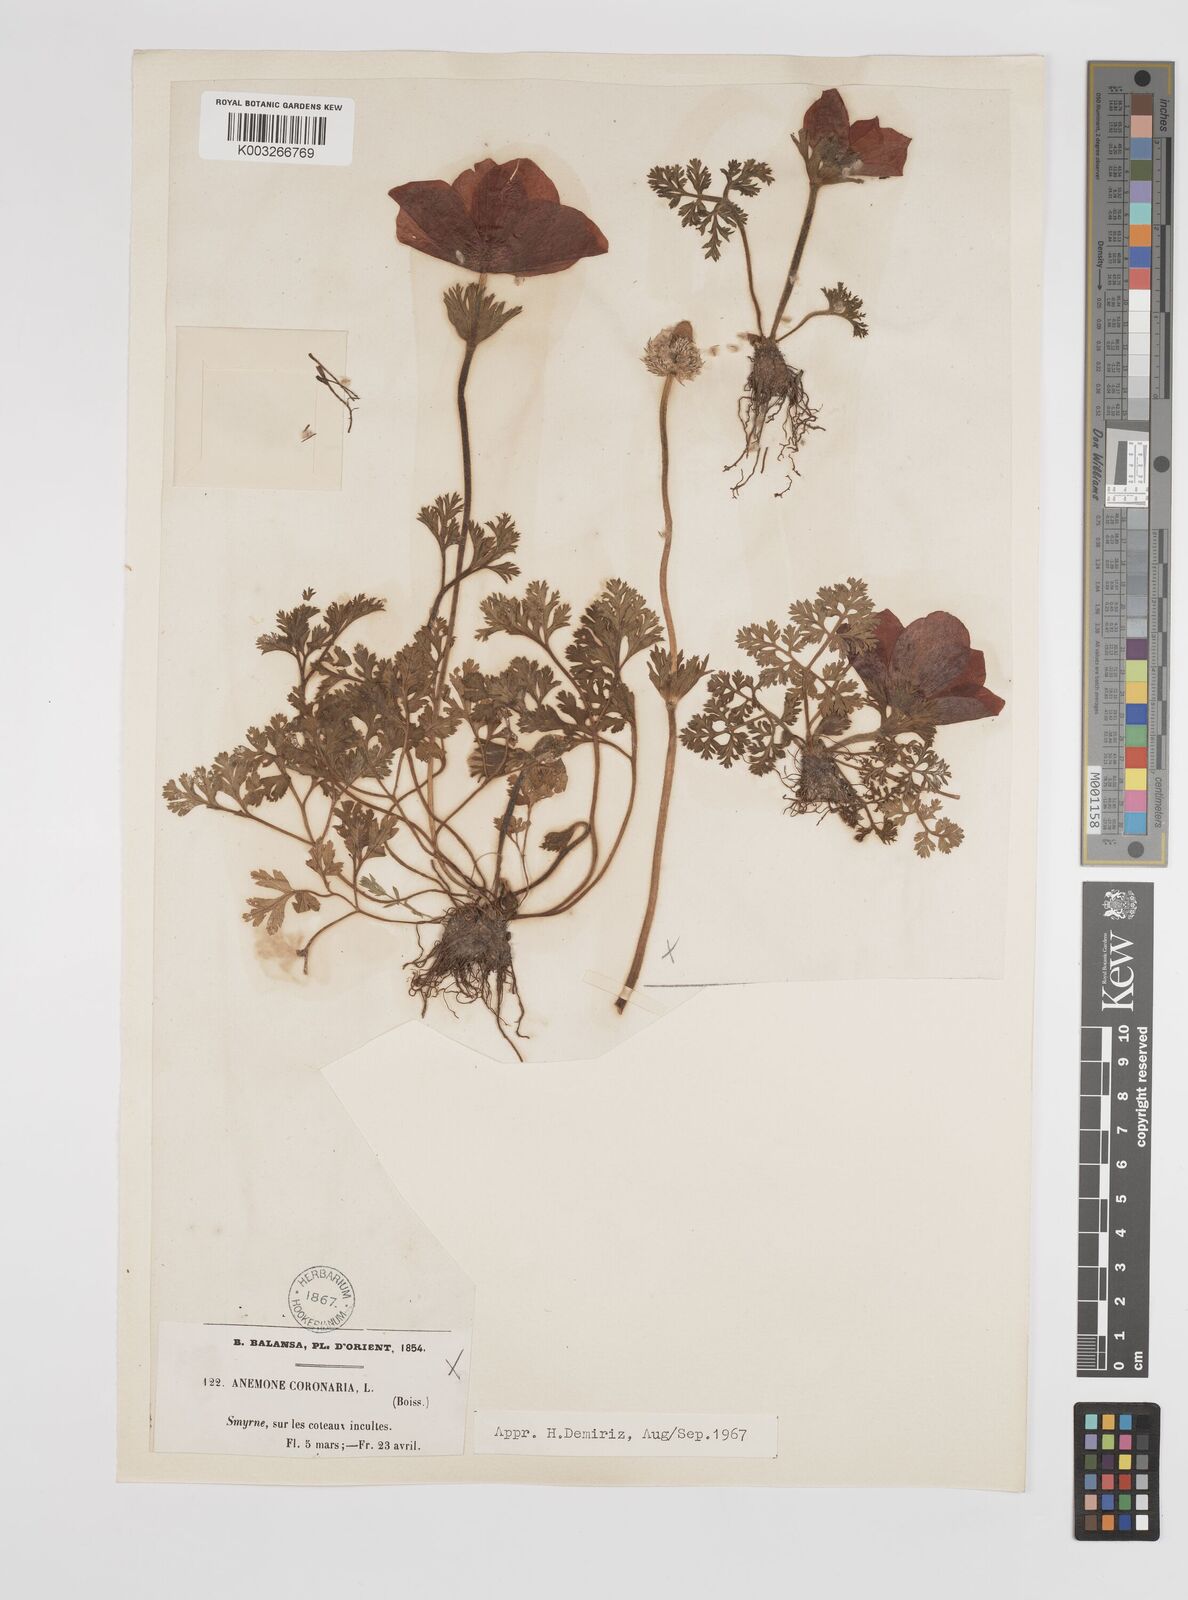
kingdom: Plantae
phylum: Tracheophyta
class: Magnoliopsida
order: Ranunculales
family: Ranunculaceae
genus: Anemone
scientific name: Anemone coronaria
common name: Poppy anemone
